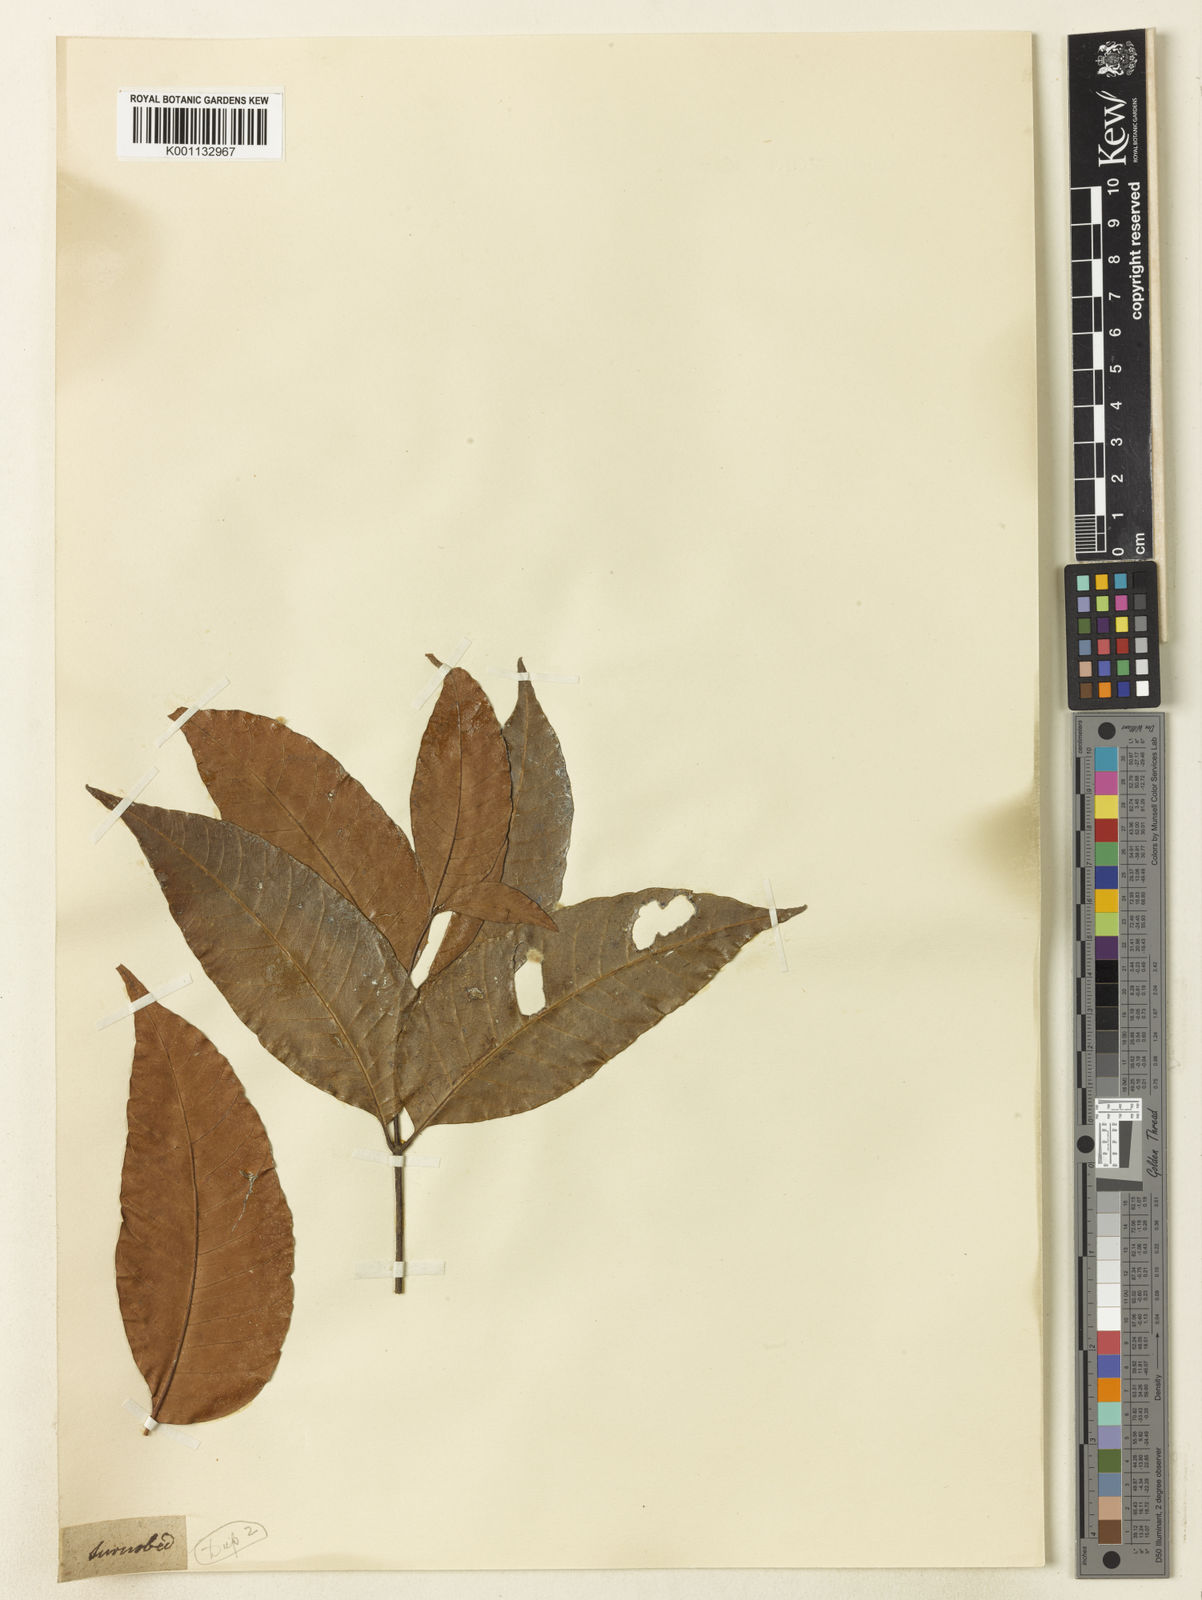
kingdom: Plantae
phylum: Tracheophyta
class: Magnoliopsida
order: Sapindales
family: Sapindaceae
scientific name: Sapindaceae
